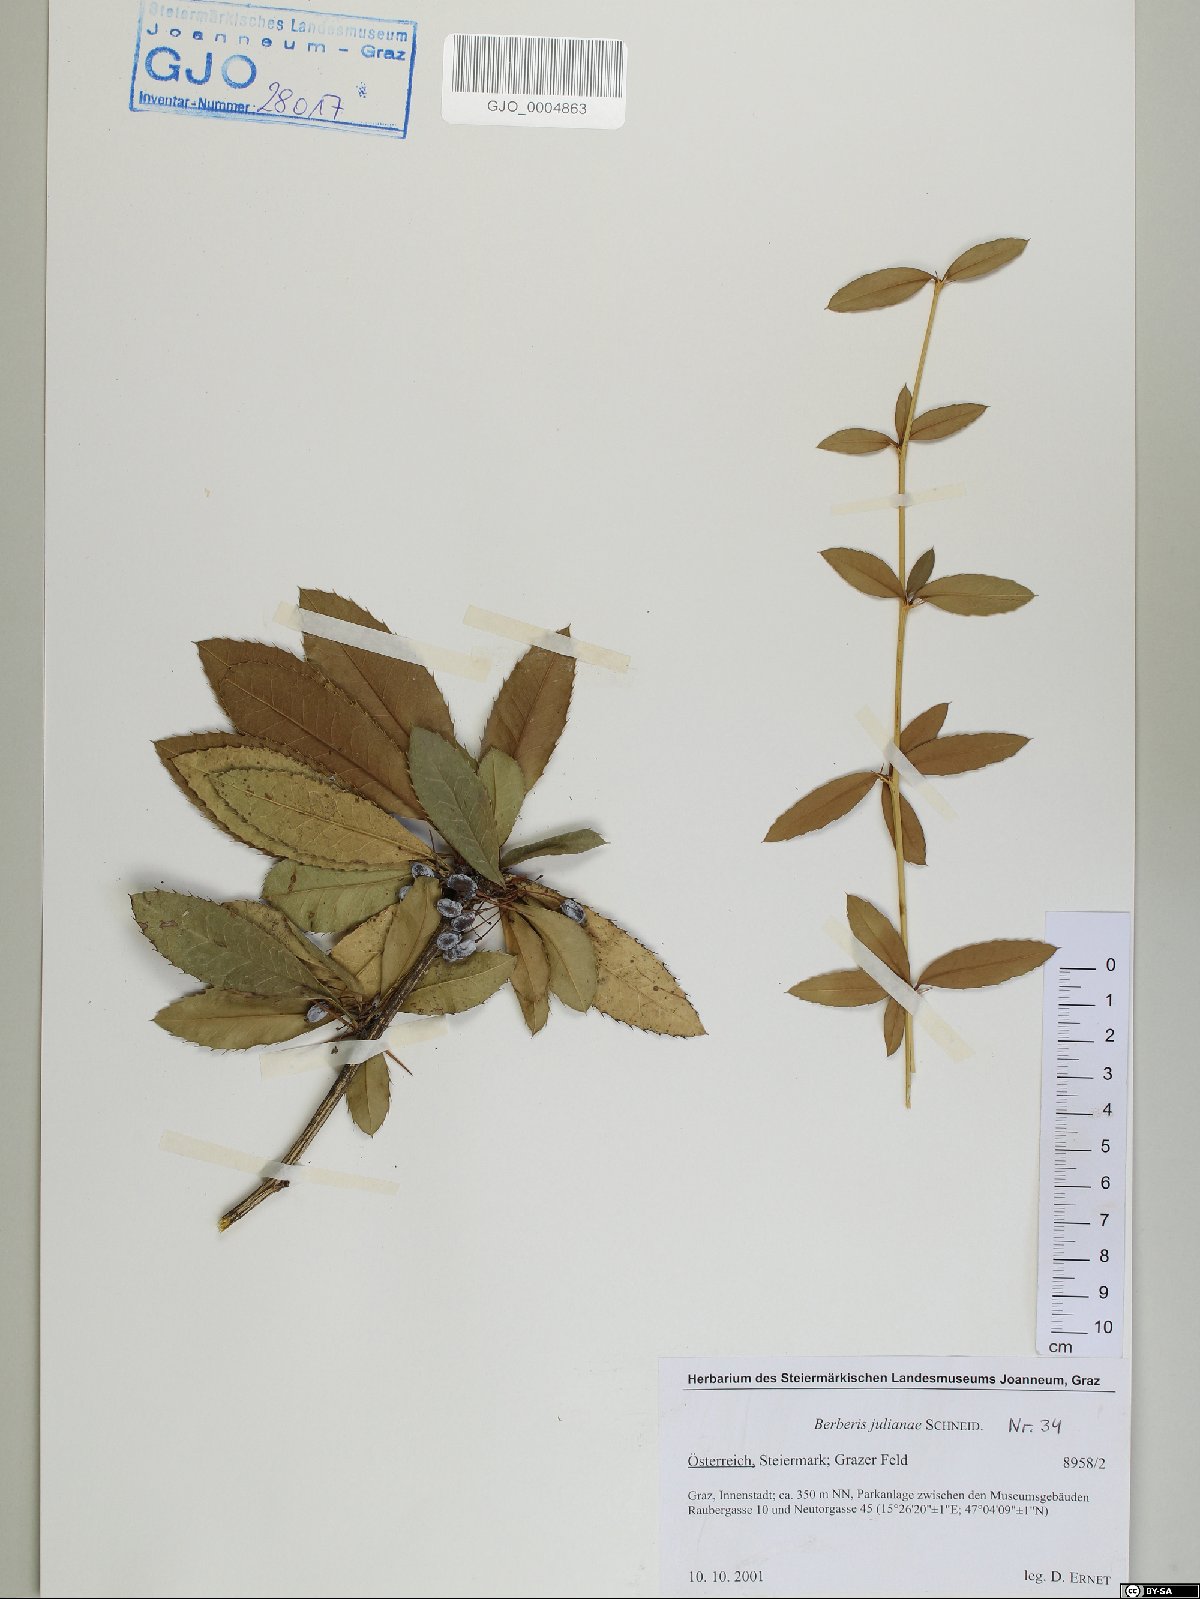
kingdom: Plantae
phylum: Tracheophyta
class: Magnoliopsida
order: Ranunculales
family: Berberidaceae
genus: Berberis
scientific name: Berberis julianae
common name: Wintergreen barberry
